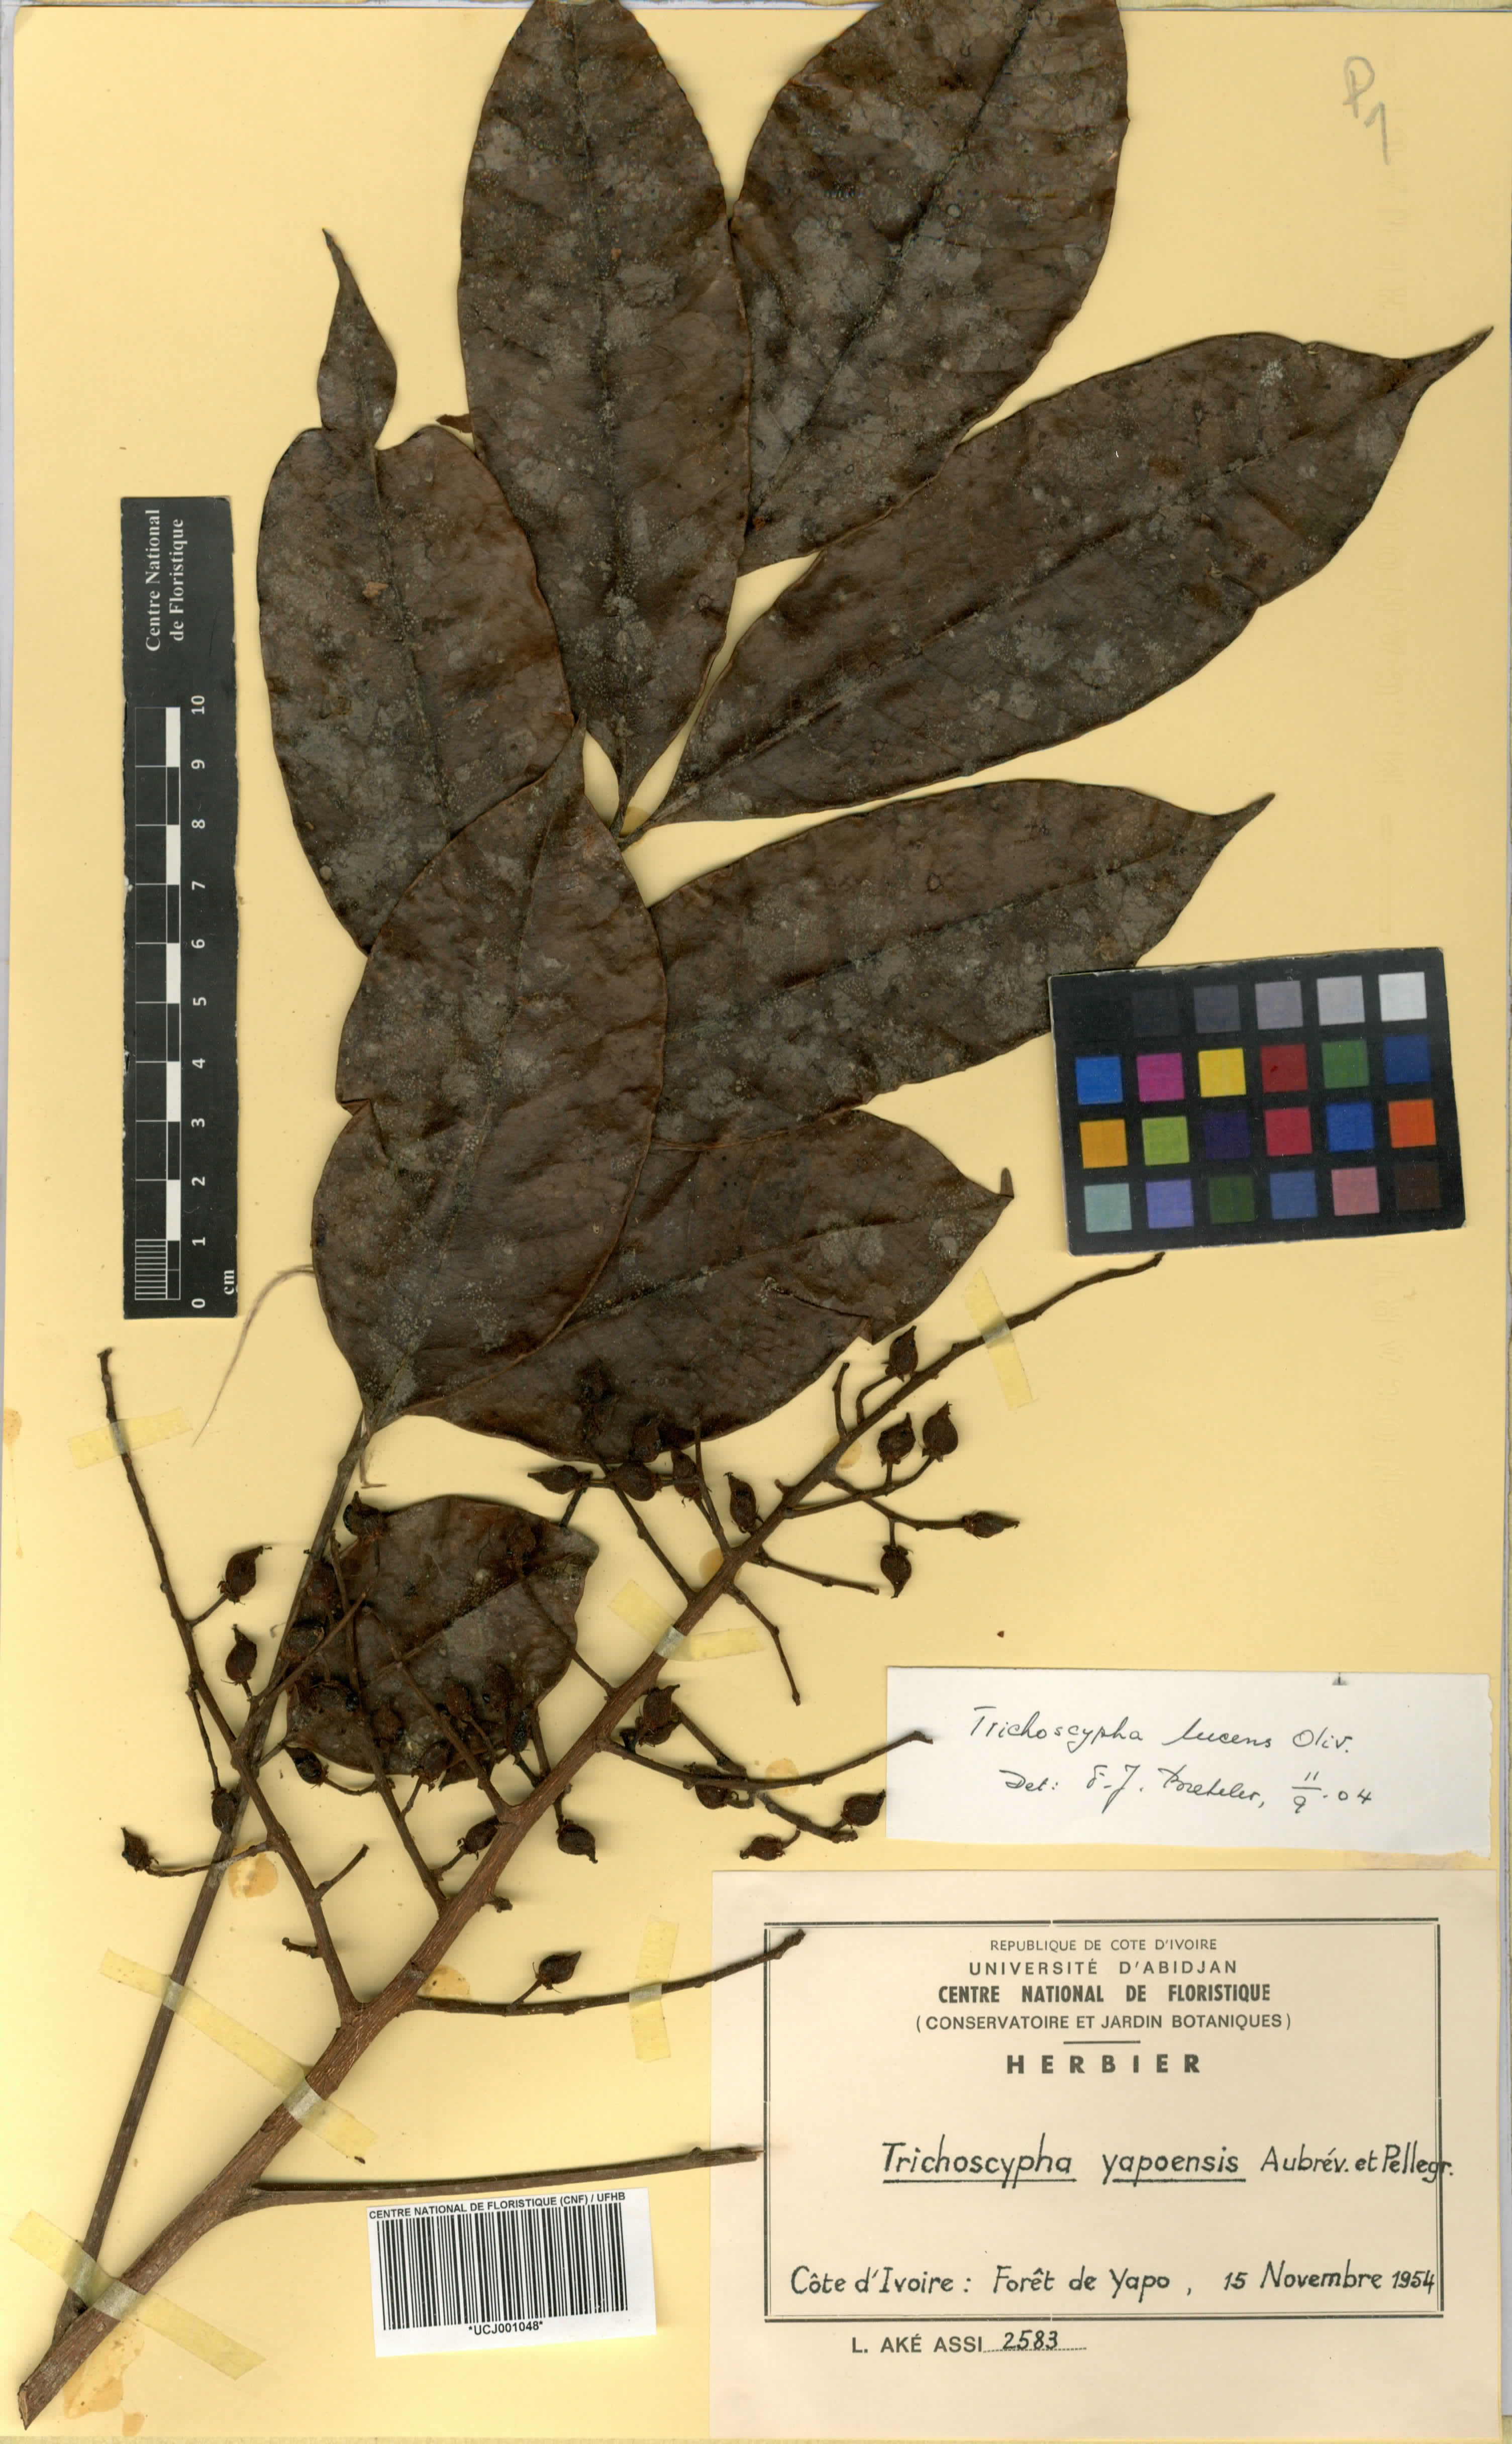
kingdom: Plantae
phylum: Tracheophyta
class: Magnoliopsida
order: Sapindales
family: Anacardiaceae
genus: Trichoscypha
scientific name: Trichoscypha lucens
